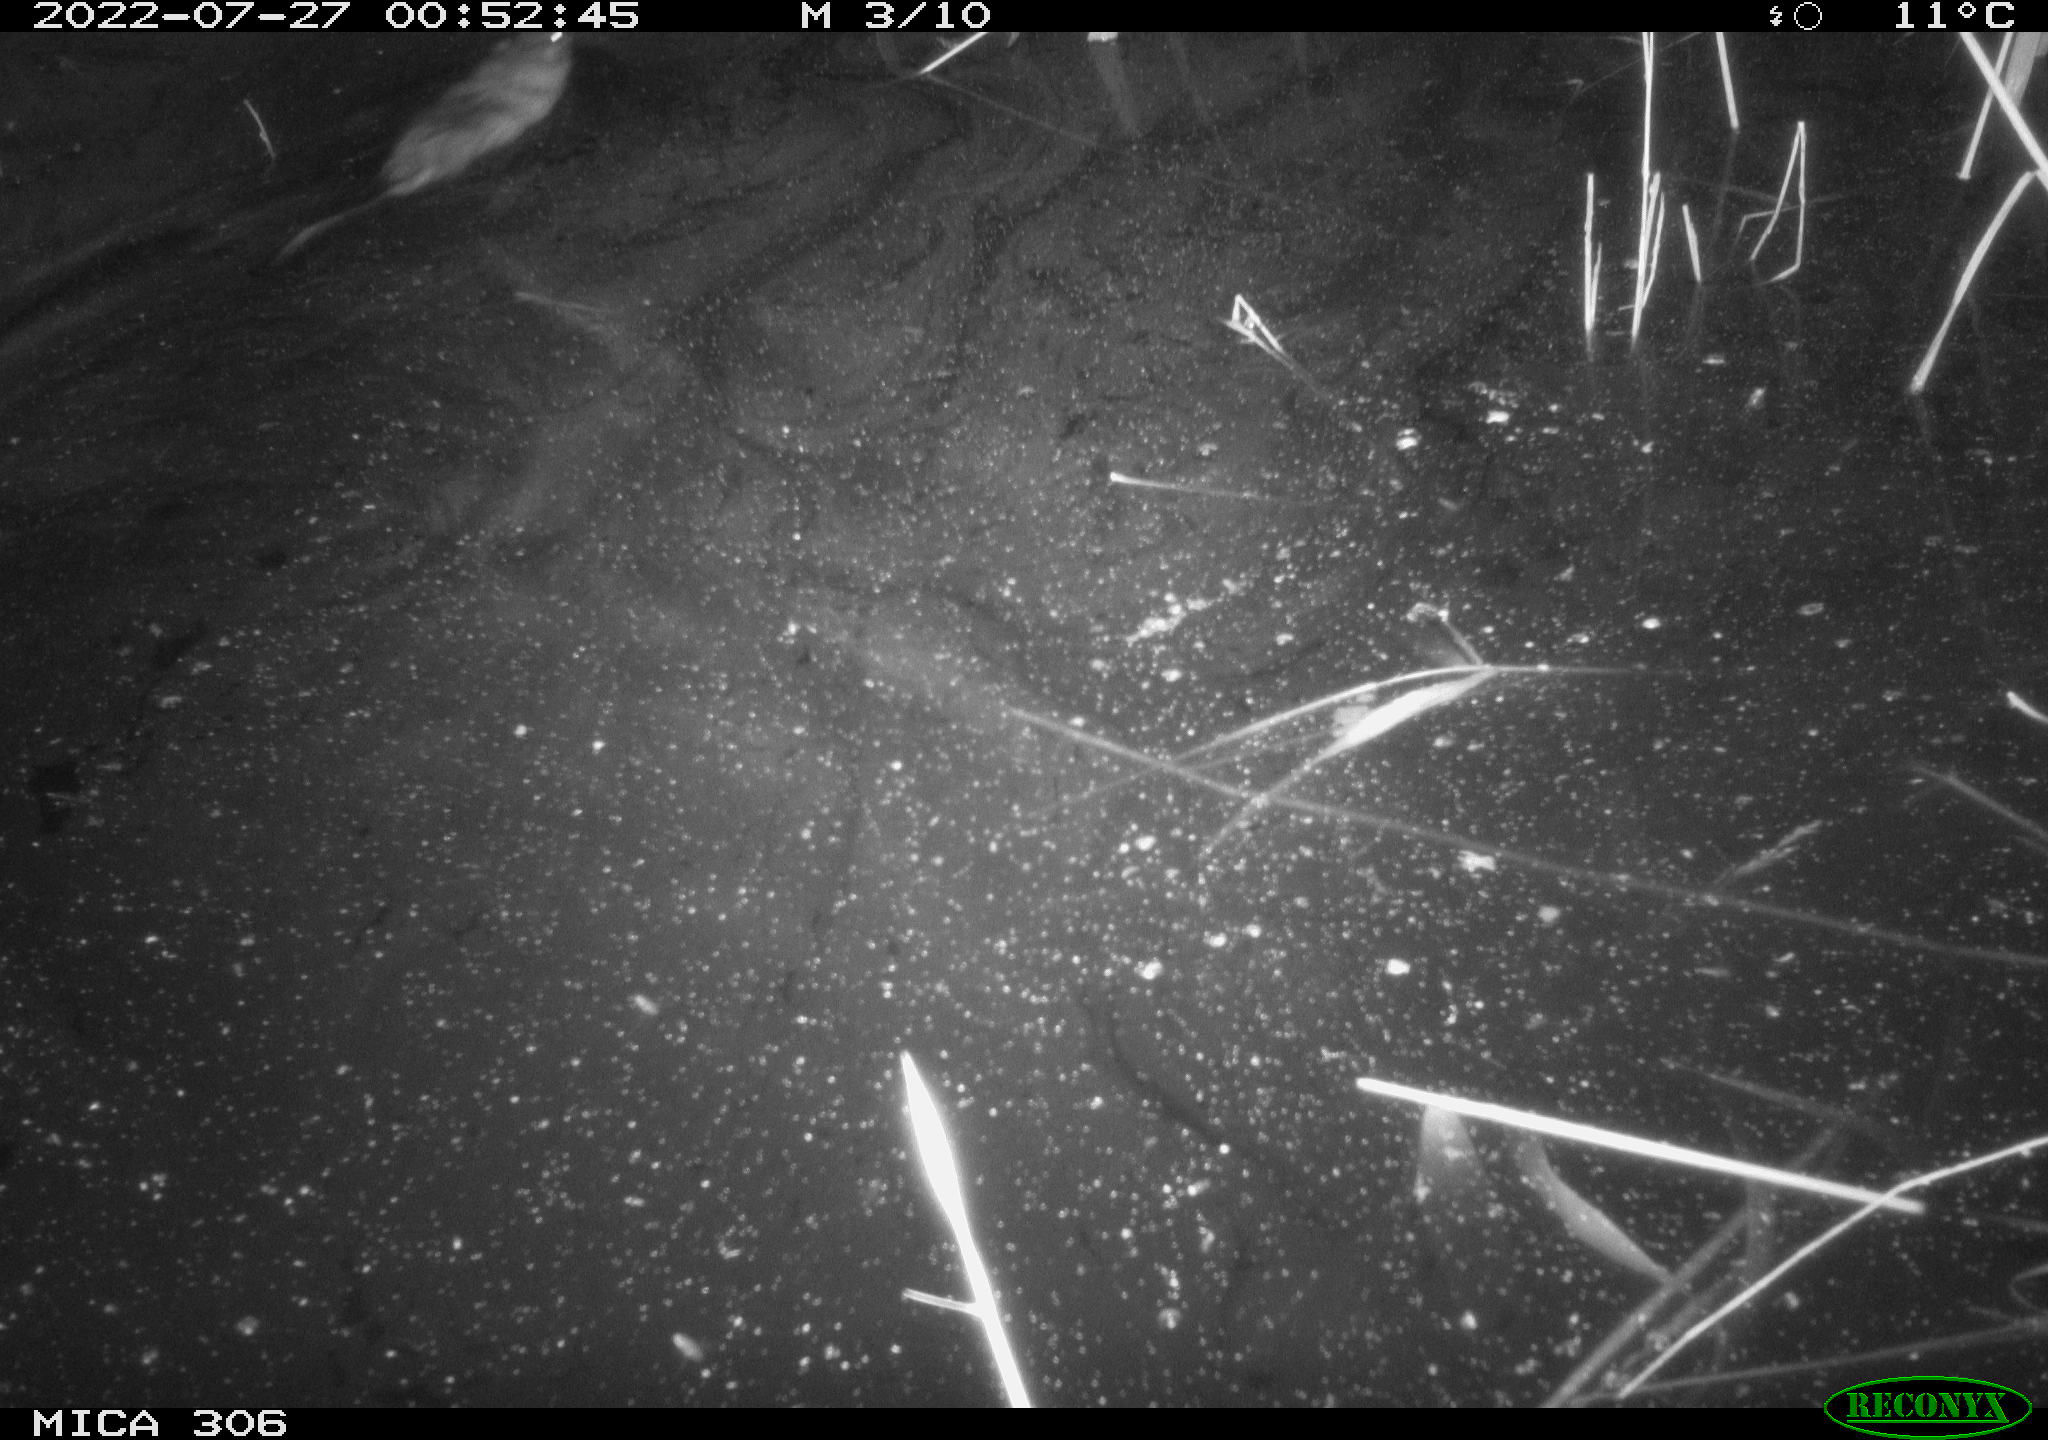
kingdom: Animalia
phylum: Chordata
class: Mammalia
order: Rodentia
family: Cricetidae
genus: Ondatra
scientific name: Ondatra zibethicus
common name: Muskrat
